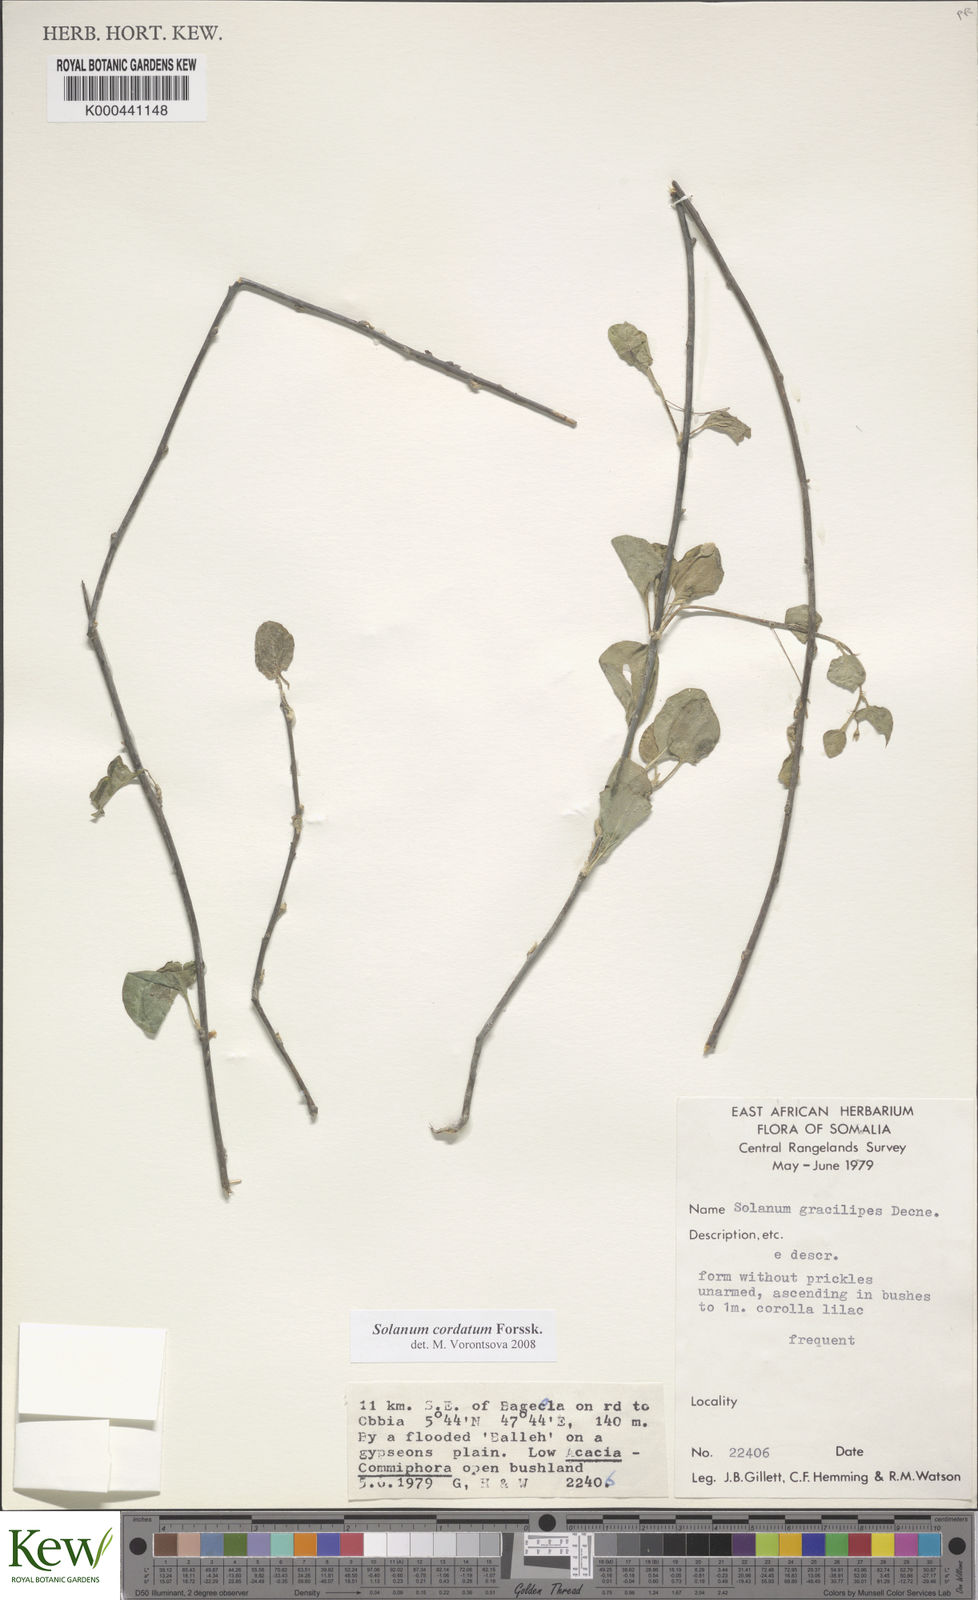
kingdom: Plantae
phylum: Tracheophyta
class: Magnoliopsida
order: Solanales
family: Solanaceae
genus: Solanum
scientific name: Solanum cordatum
